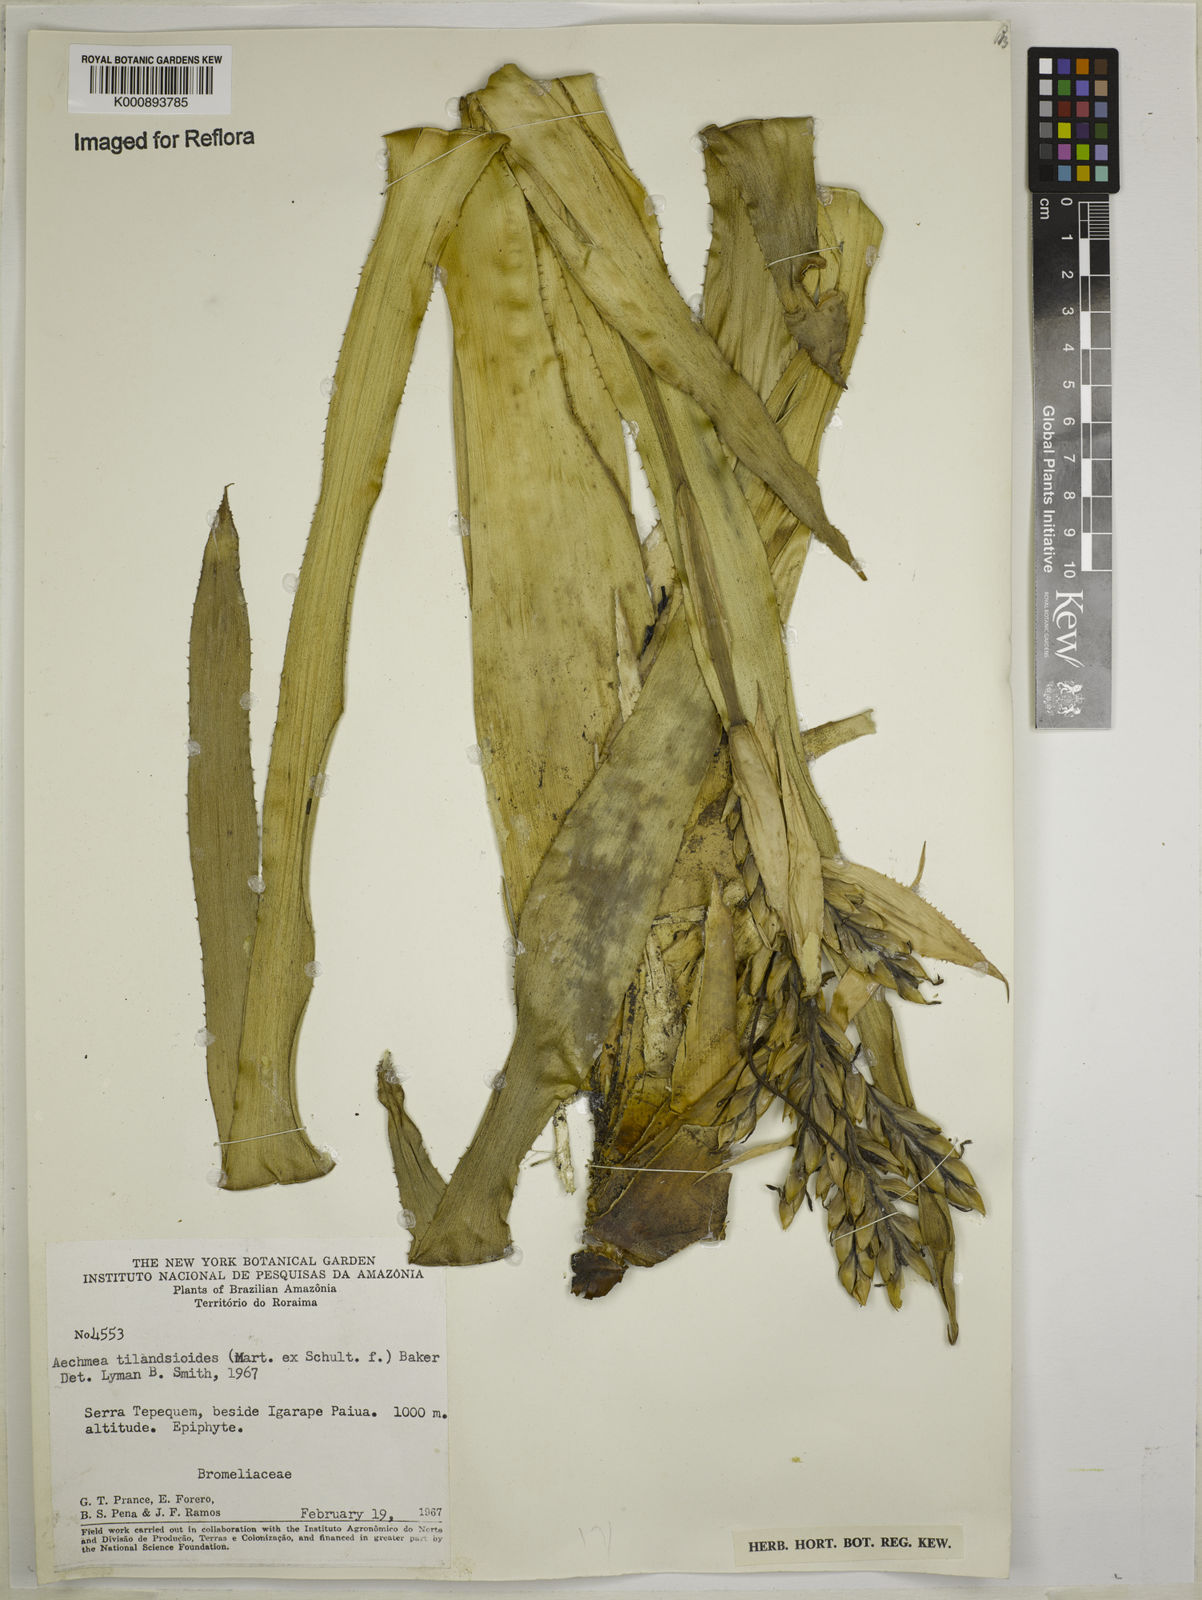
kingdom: Plantae
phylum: Tracheophyta
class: Liliopsida
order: Poales
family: Bromeliaceae
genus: Aechmea
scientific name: Aechmea tillandsioides
